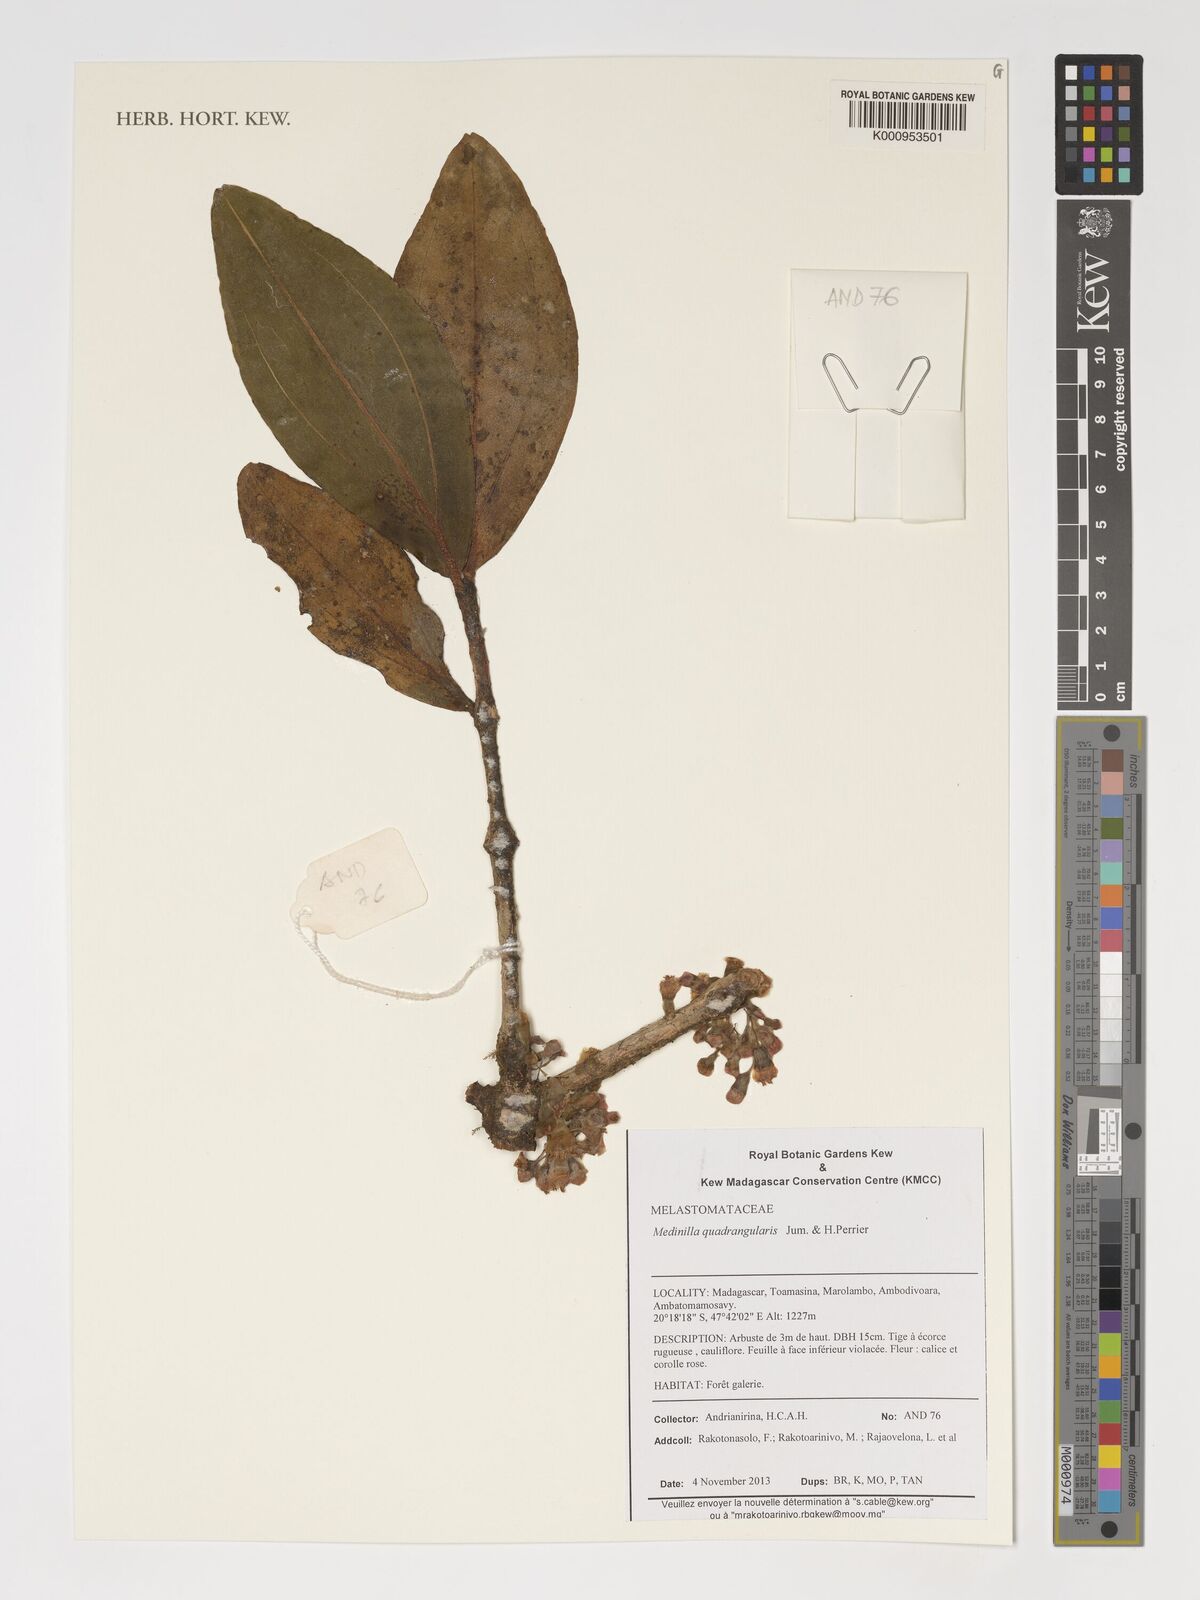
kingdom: Plantae
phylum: Tracheophyta
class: Magnoliopsida
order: Myrtales
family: Melastomataceae
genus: Medinilla
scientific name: Medinilla quadrangularis
